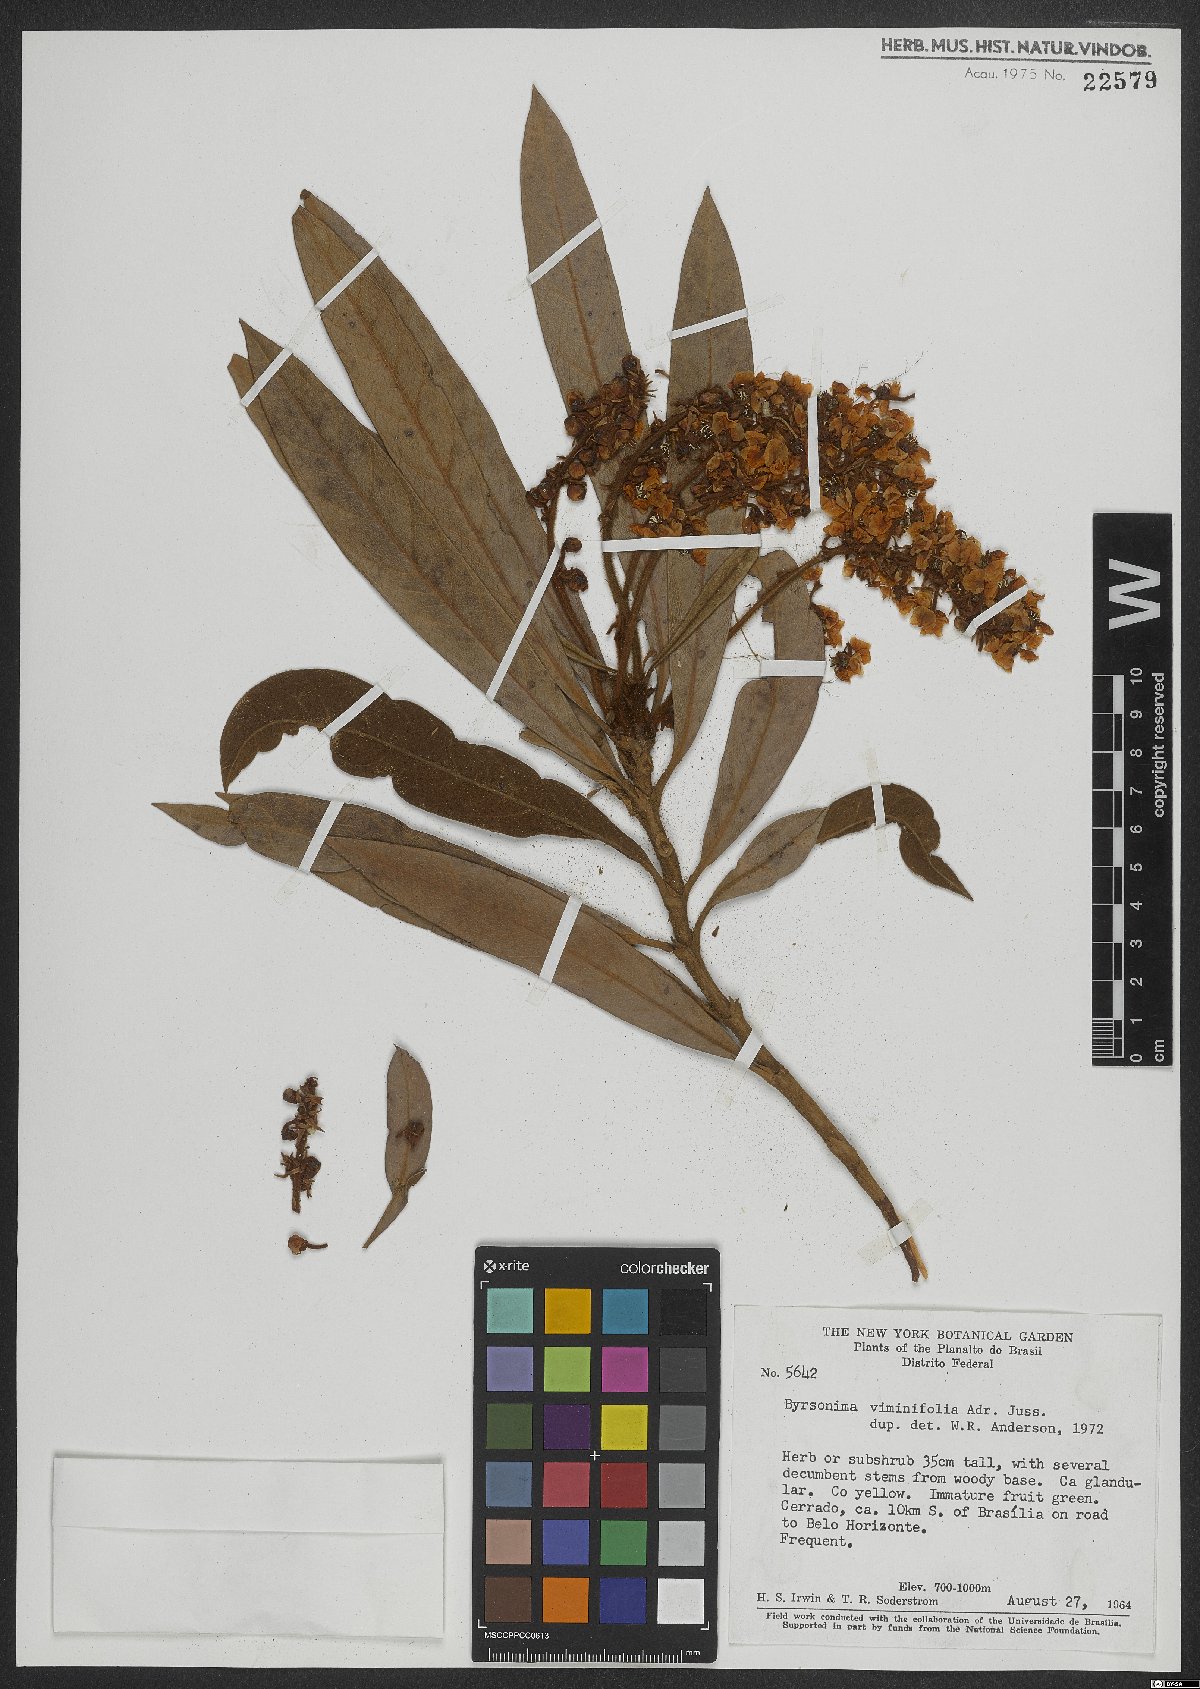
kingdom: Plantae
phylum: Tracheophyta
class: Magnoliopsida
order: Malpighiales
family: Malpighiaceae
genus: Byrsonima
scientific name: Byrsonima viminifolia
